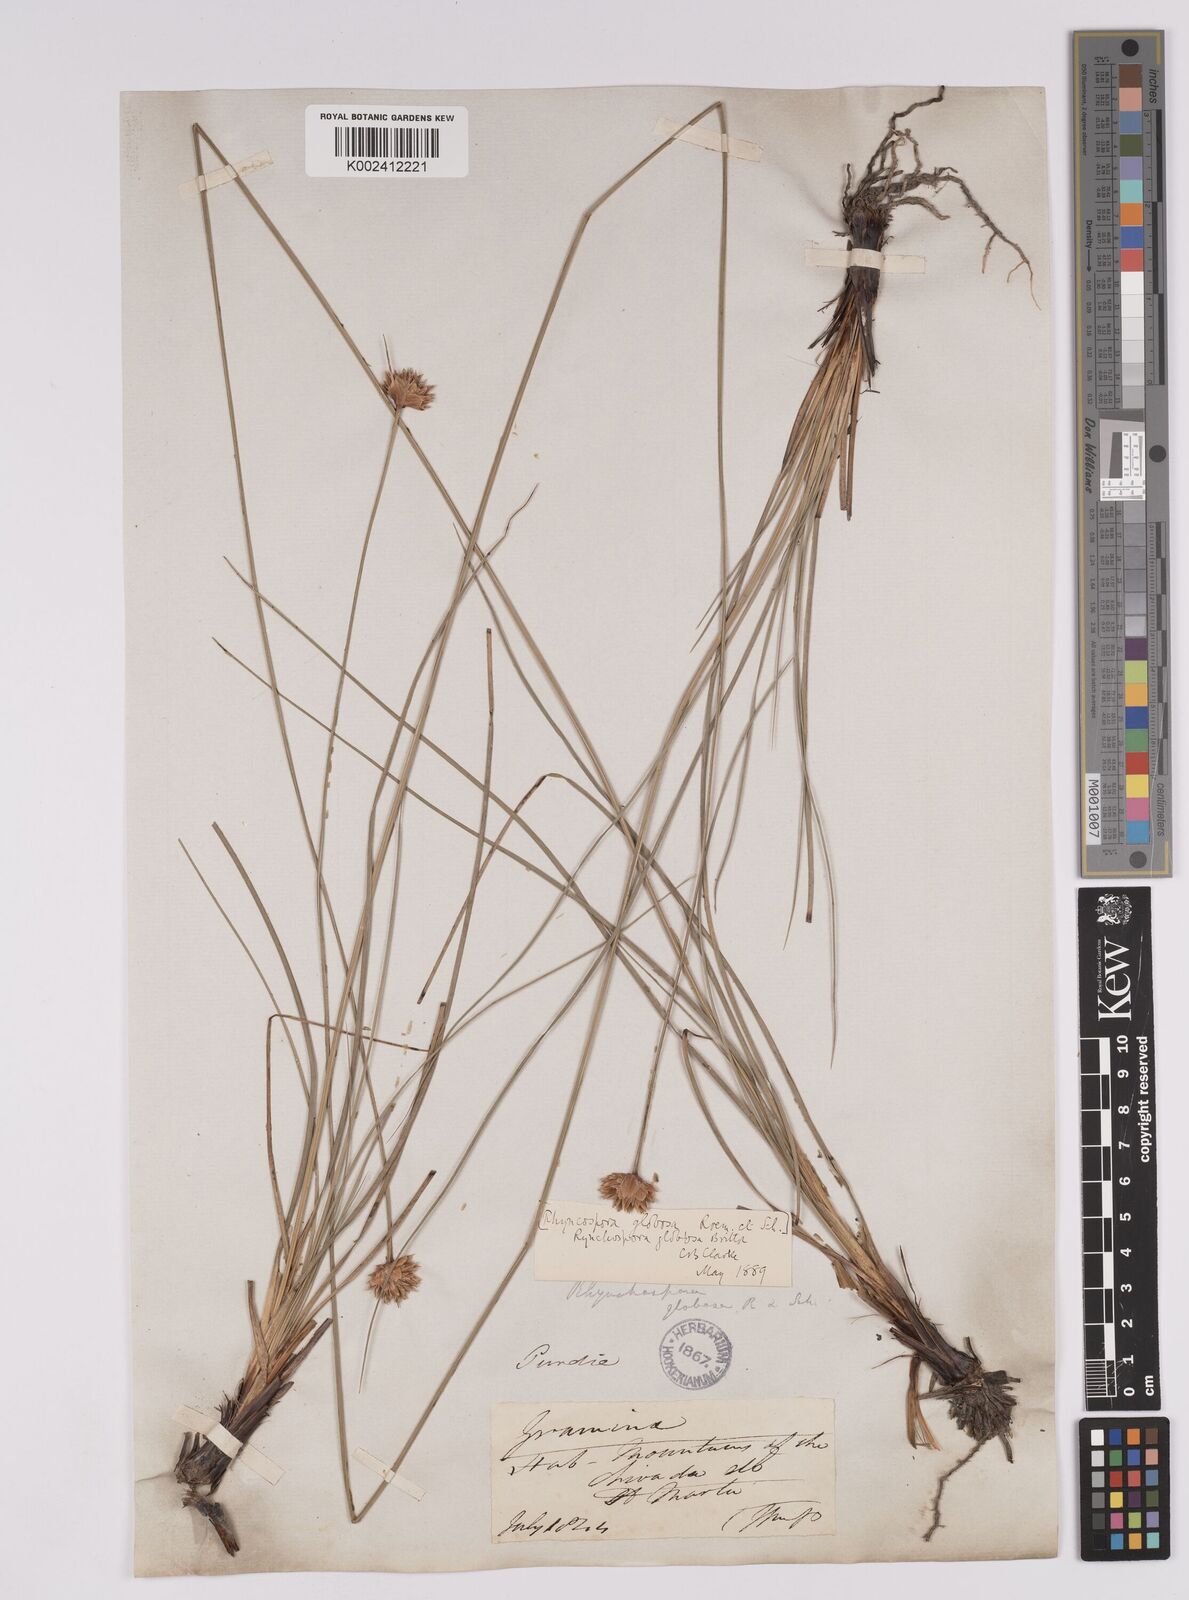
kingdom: Plantae
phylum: Tracheophyta
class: Liliopsida
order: Poales
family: Cyperaceae
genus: Rhynchospora
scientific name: Rhynchospora barbata
